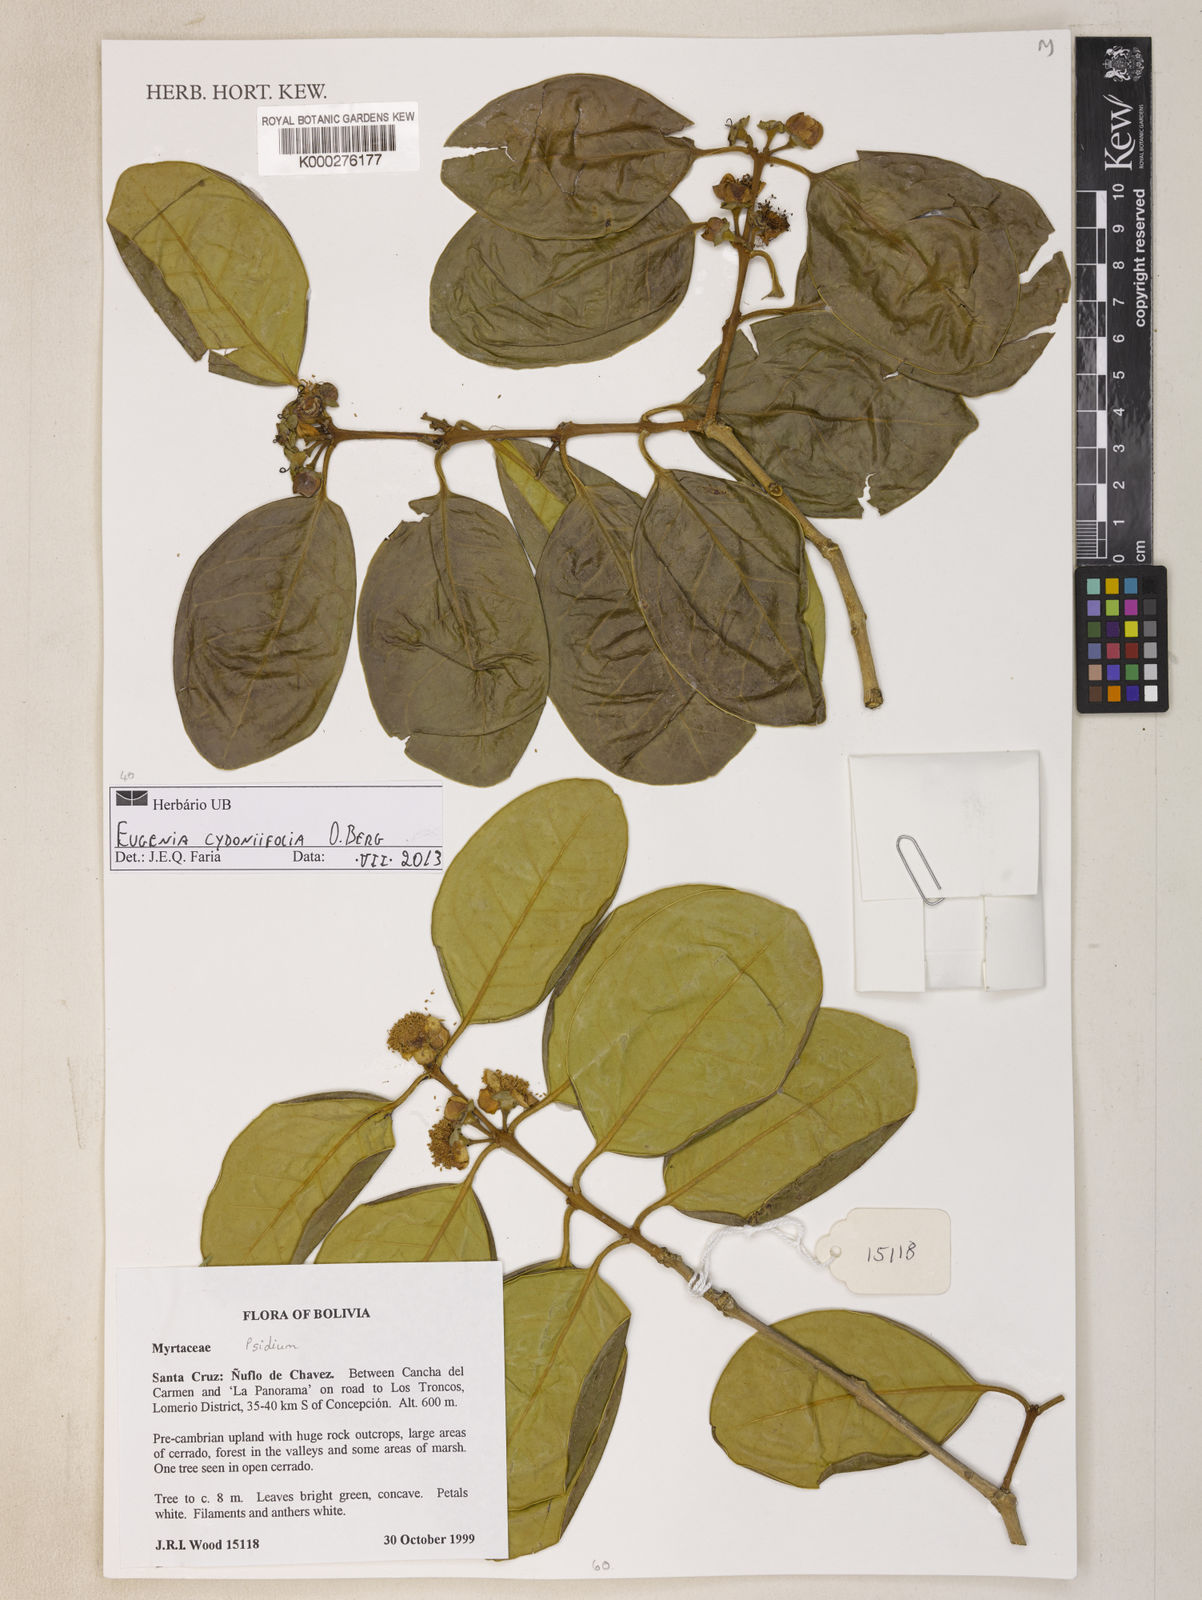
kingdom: Plantae
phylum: Tracheophyta
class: Magnoliopsida
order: Myrtales
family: Myrtaceae
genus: Eugenia
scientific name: Eugenia cydoniifolia
